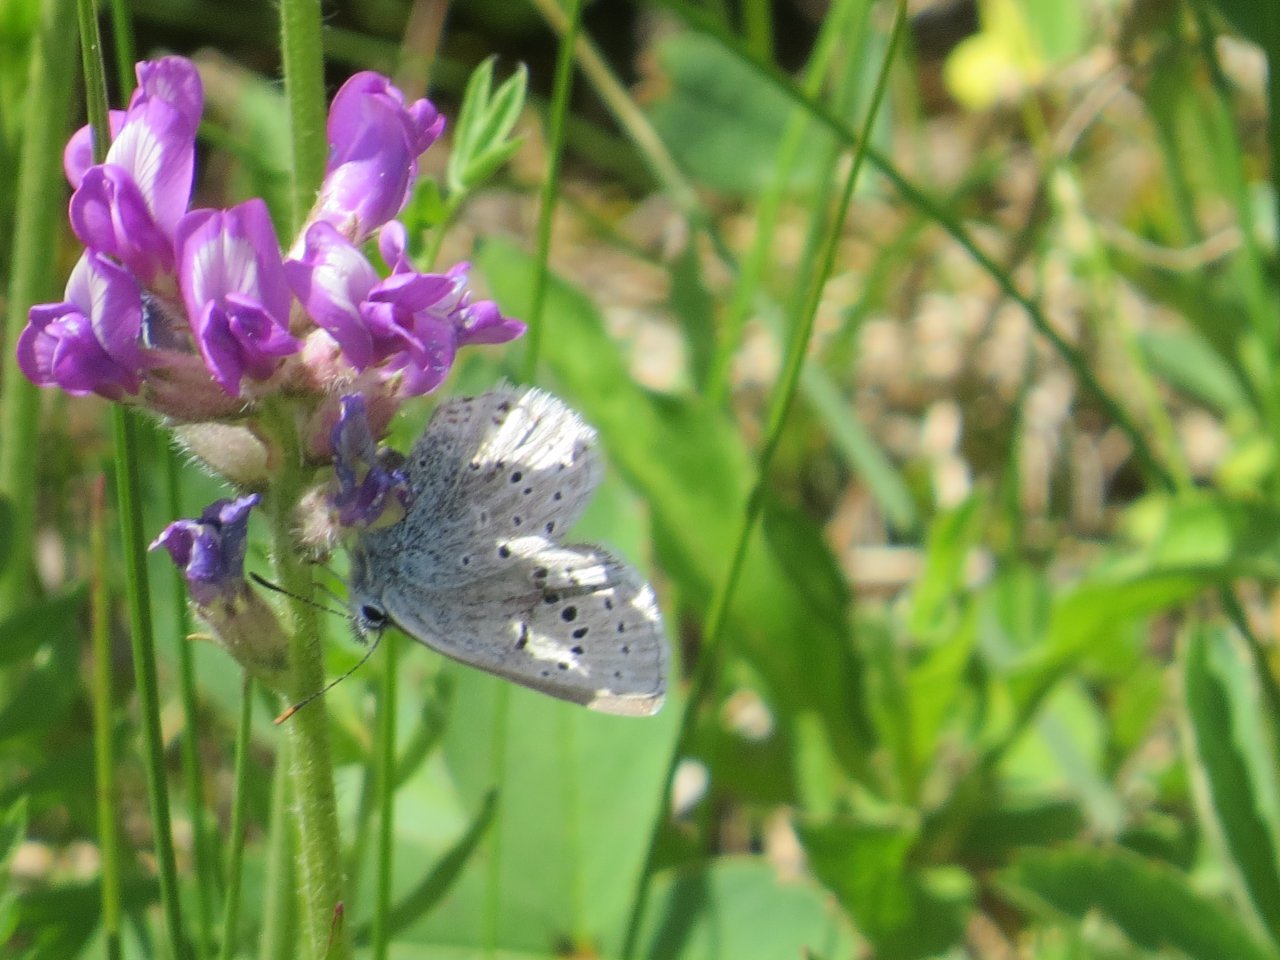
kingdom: Animalia
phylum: Arthropoda
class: Insecta
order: Lepidoptera
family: Lycaenidae
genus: Plebejus
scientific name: Plebejus saepiolus
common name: Greenish Blue
